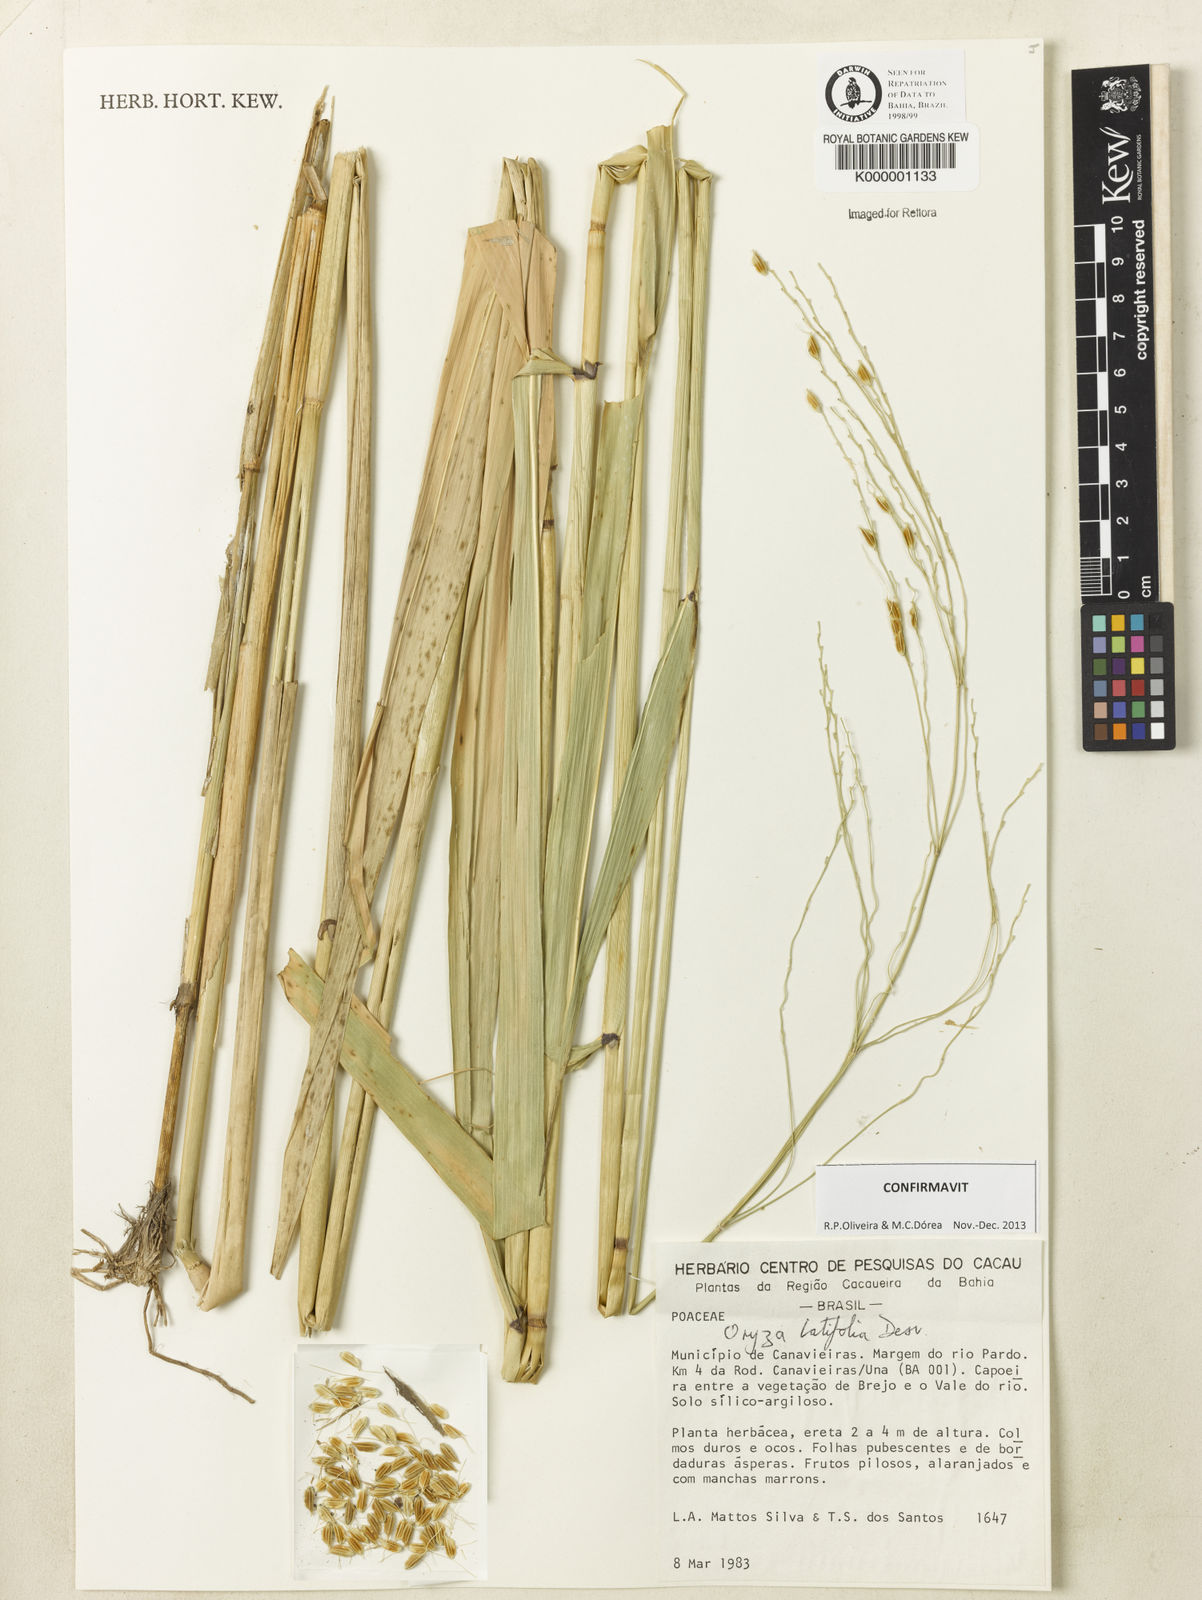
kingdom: Plantae
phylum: Tracheophyta
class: Liliopsida
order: Poales
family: Poaceae
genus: Oryza
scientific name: Oryza latifolia
